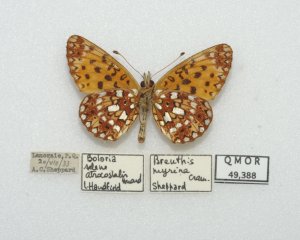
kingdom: Animalia
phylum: Arthropoda
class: Insecta
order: Lepidoptera
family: Nymphalidae
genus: Boloria
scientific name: Boloria selene
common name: Silver-bordered Fritillary
